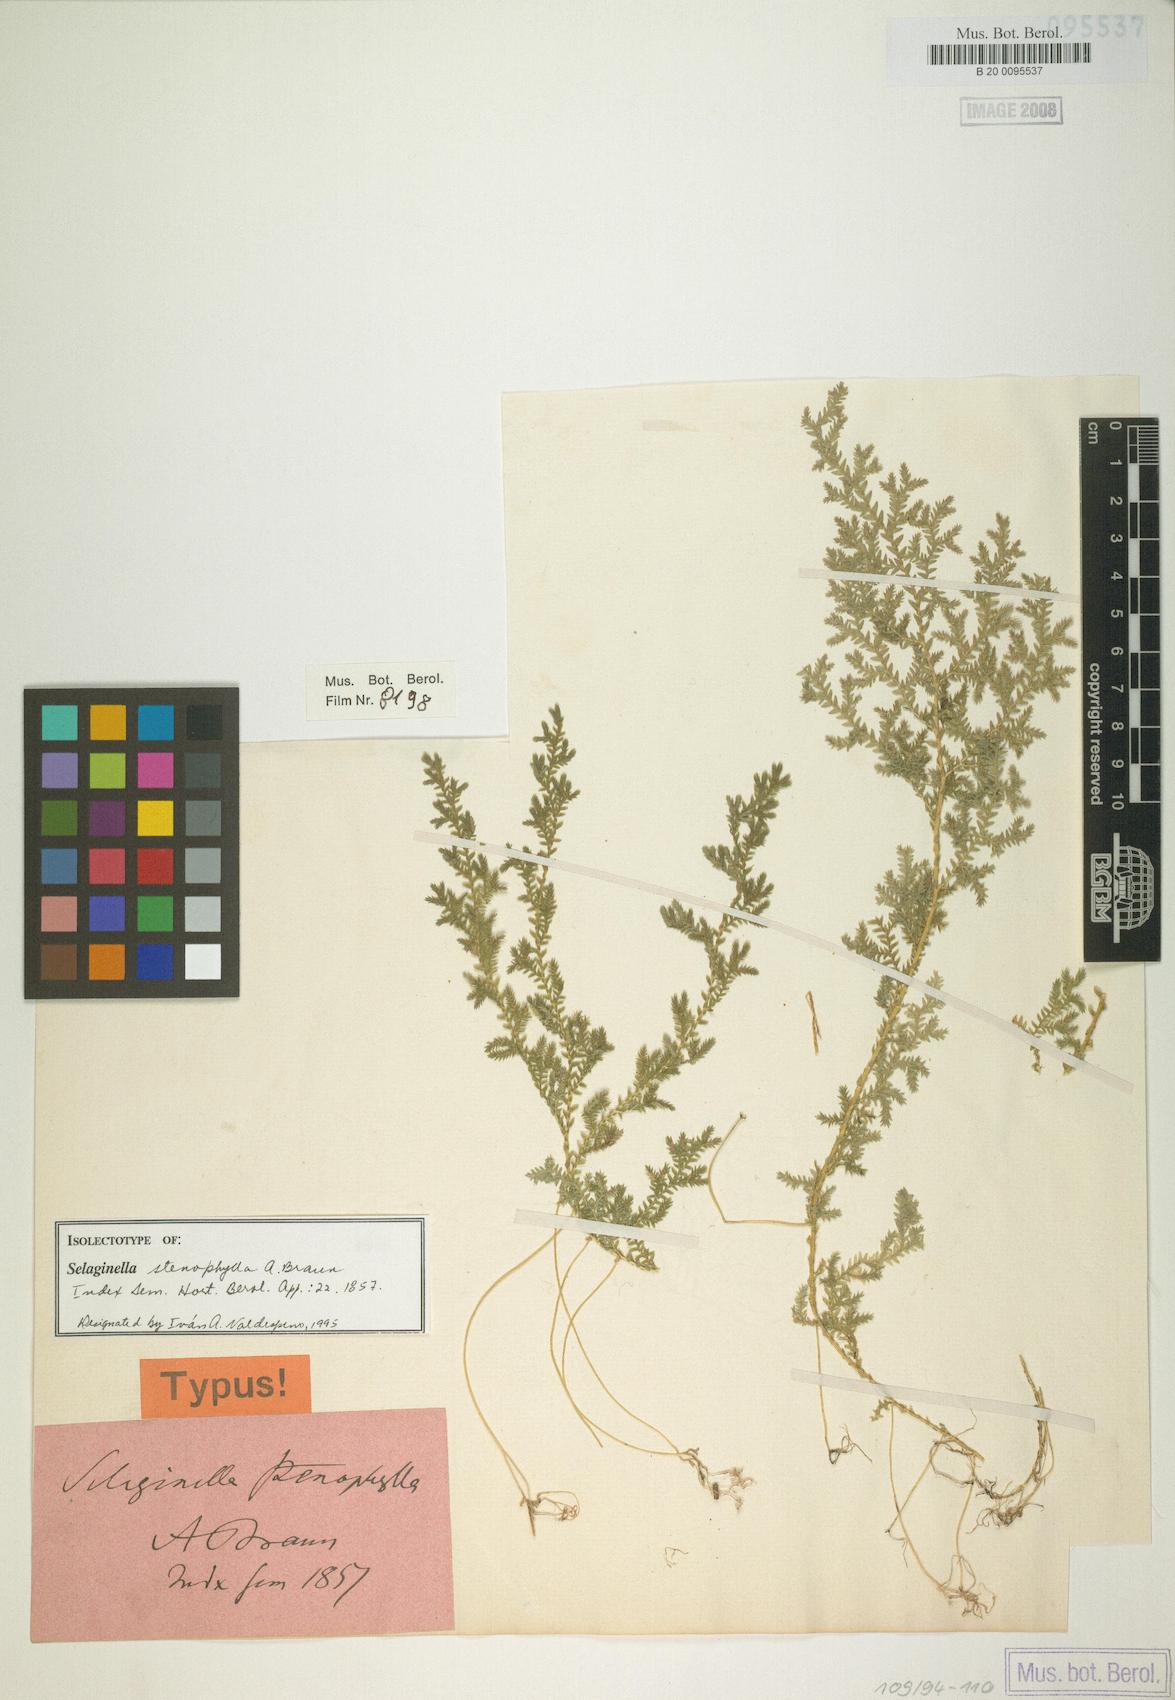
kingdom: Plantae
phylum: Tracheophyta
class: Lycopodiopsida
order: Selaginellales
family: Selaginellaceae
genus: Selaginella
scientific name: Selaginella stenophylla
